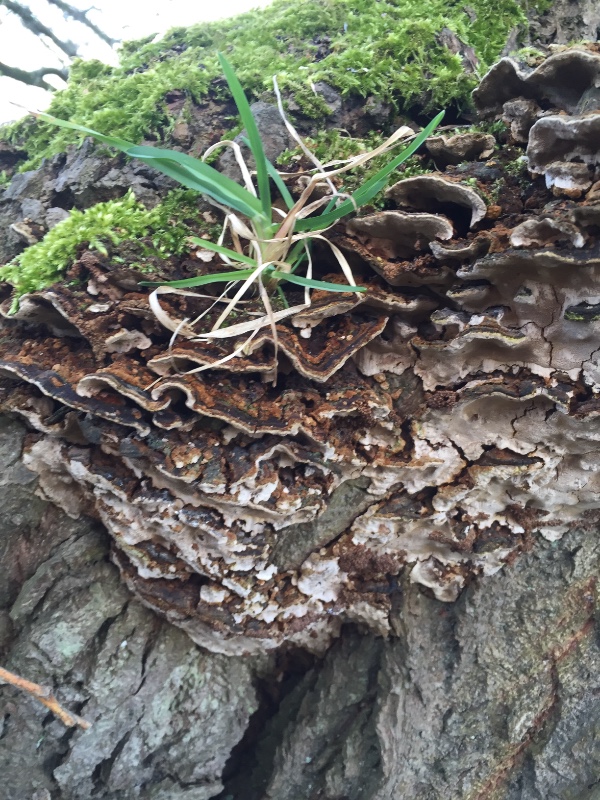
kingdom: Fungi
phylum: Basidiomycota
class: Agaricomycetes
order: Hymenochaetales
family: Hymenochaetaceae
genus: Phellinopsis
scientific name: Phellinopsis conchata
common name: pile-ildporesvamp
